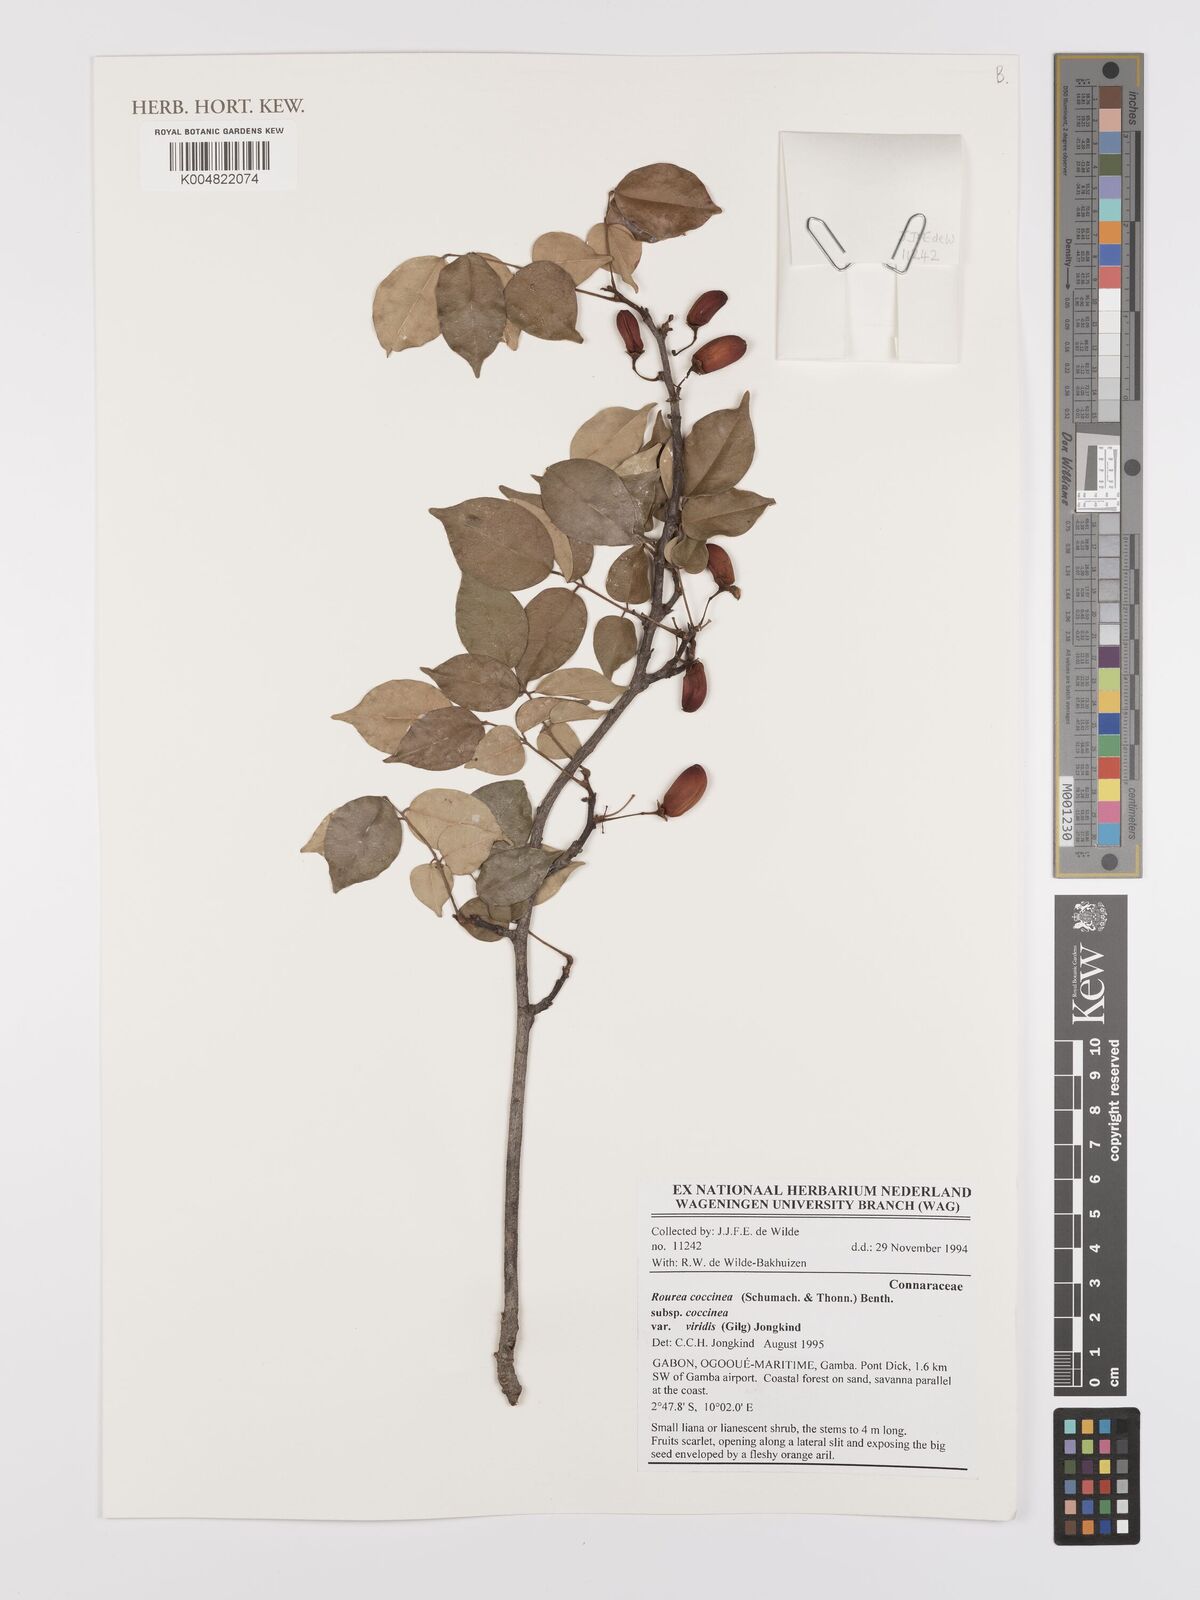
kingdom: Plantae
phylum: Tracheophyta
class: Magnoliopsida
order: Oxalidales
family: Connaraceae
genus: Rourea
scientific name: Rourea coccinea
